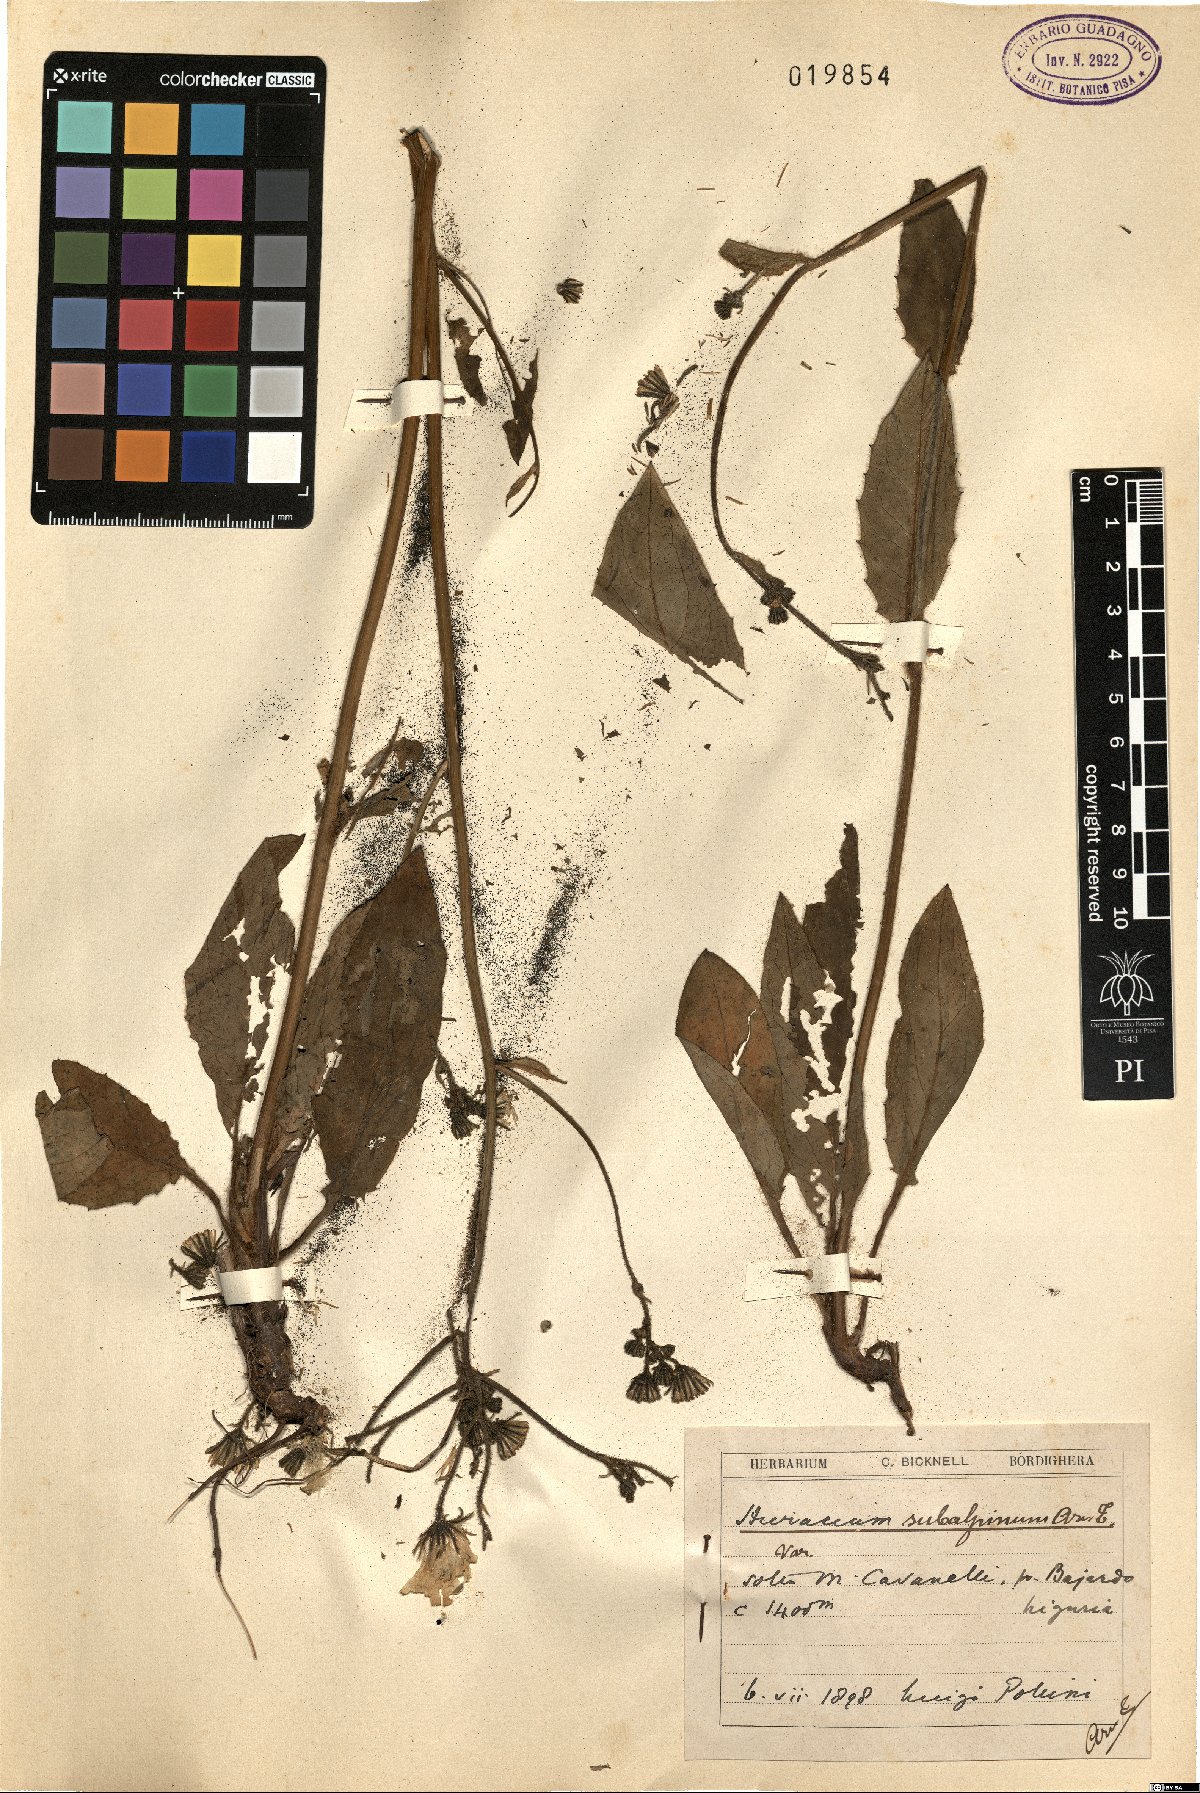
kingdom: Plantae
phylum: Tracheophyta
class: Magnoliopsida
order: Asterales
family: Asteraceae
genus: Hieracium
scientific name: Hieracium umbrosum
